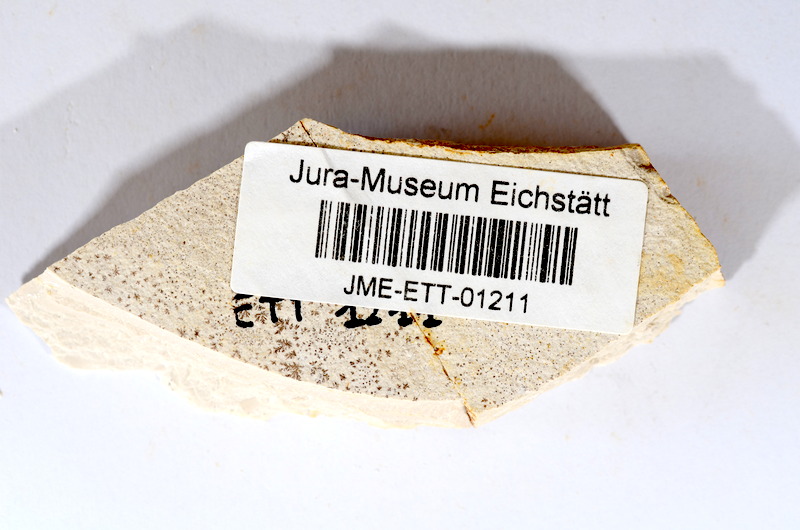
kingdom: Animalia
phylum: Chordata
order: Salmoniformes
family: Orthogonikleithridae
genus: Orthogonikleithrus
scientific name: Orthogonikleithrus hoelli
